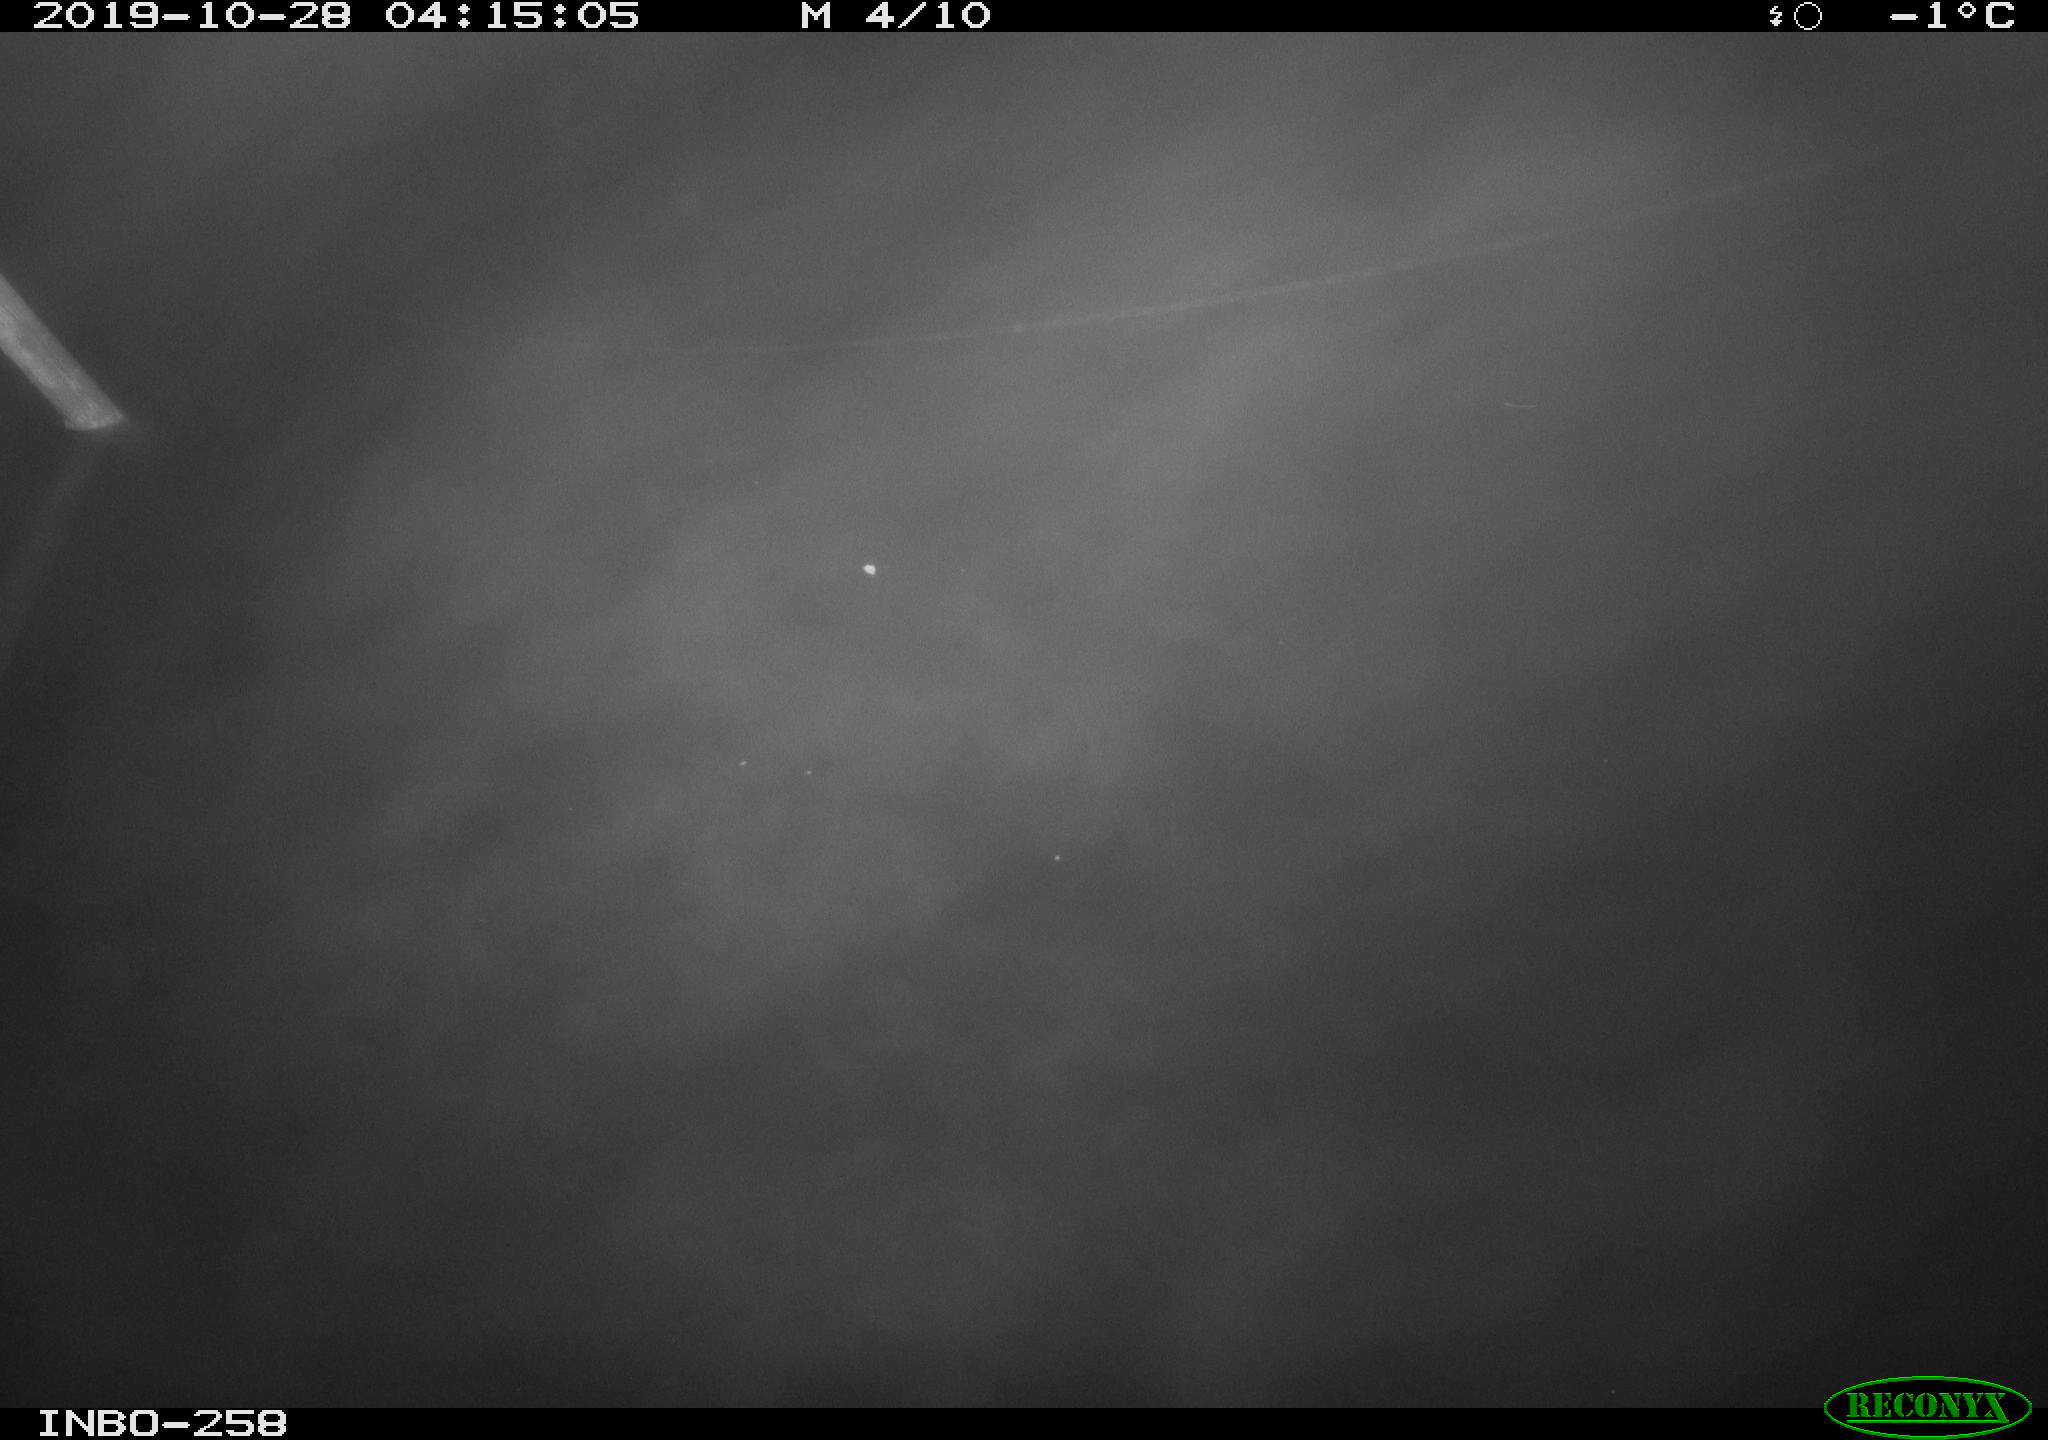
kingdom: Animalia
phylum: Chordata
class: Aves
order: Anseriformes
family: Anatidae
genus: Anas
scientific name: Anas platyrhynchos
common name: Mallard
